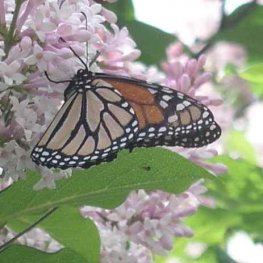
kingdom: Animalia
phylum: Arthropoda
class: Insecta
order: Lepidoptera
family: Nymphalidae
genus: Limenitis
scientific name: Limenitis archippus
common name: Viceroy
